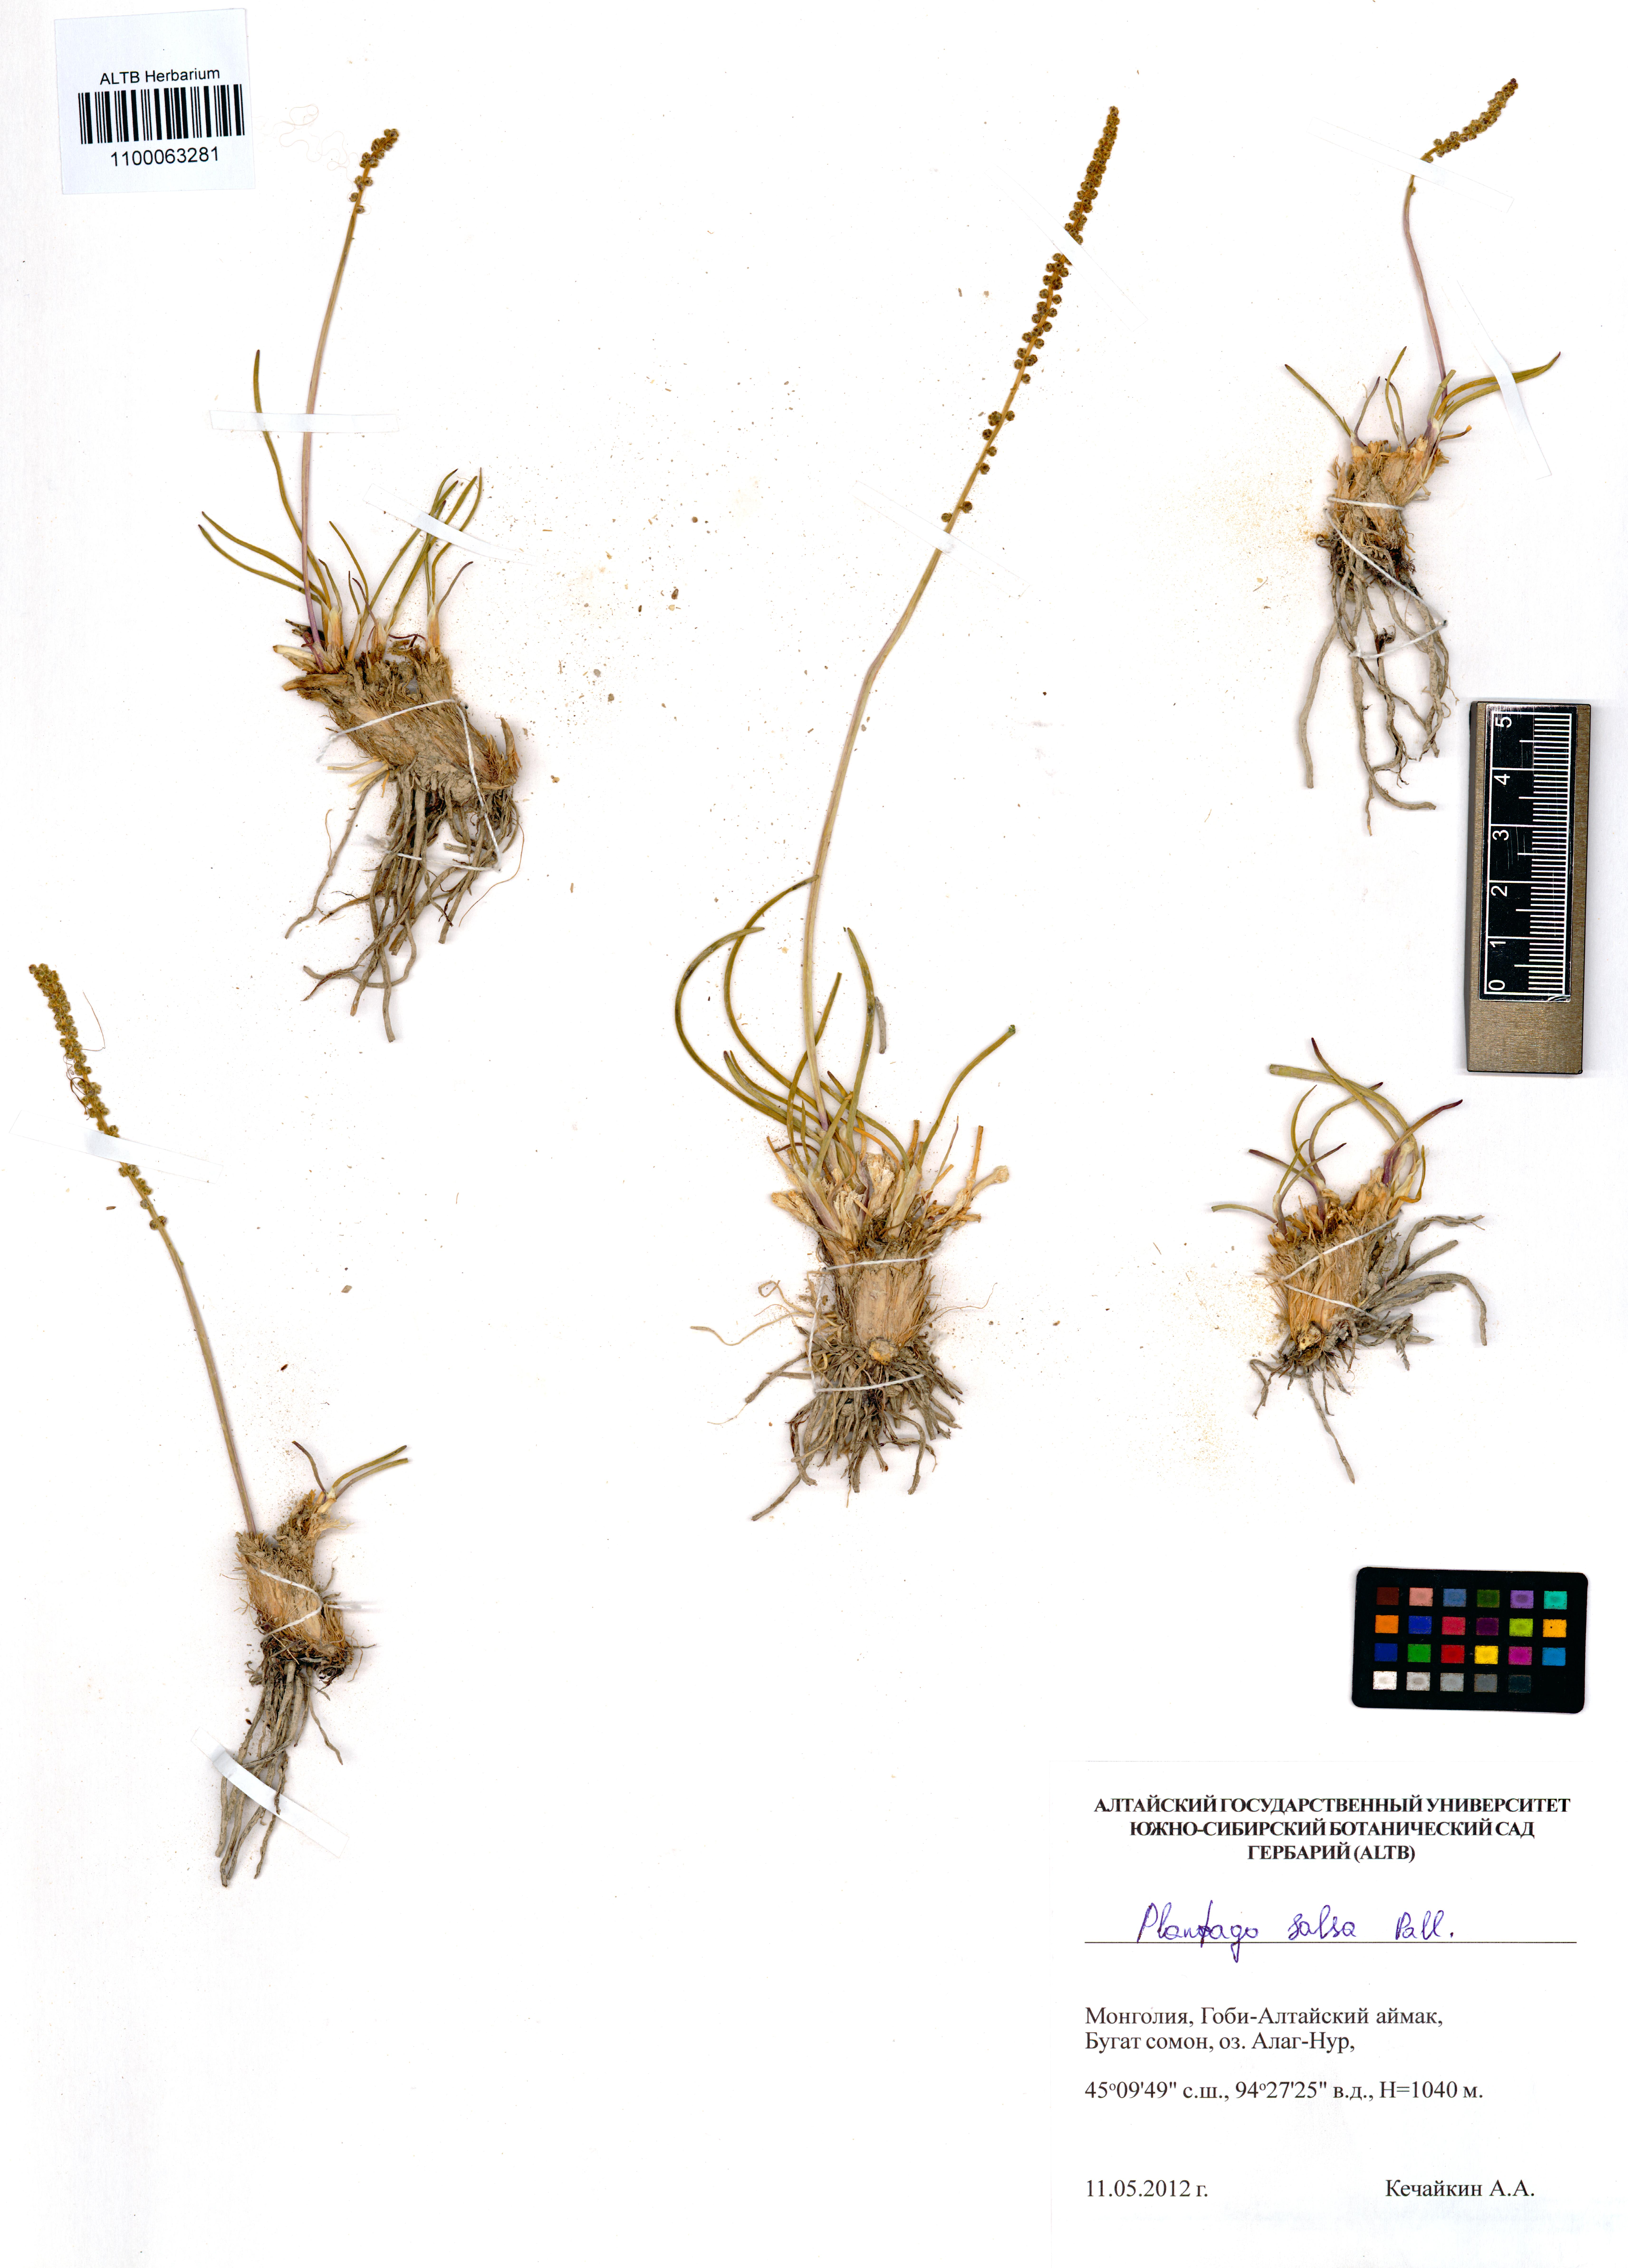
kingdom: Plantae
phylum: Tracheophyta
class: Magnoliopsida
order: Lamiales
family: Plantaginaceae
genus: Plantago
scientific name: Plantago salsa
